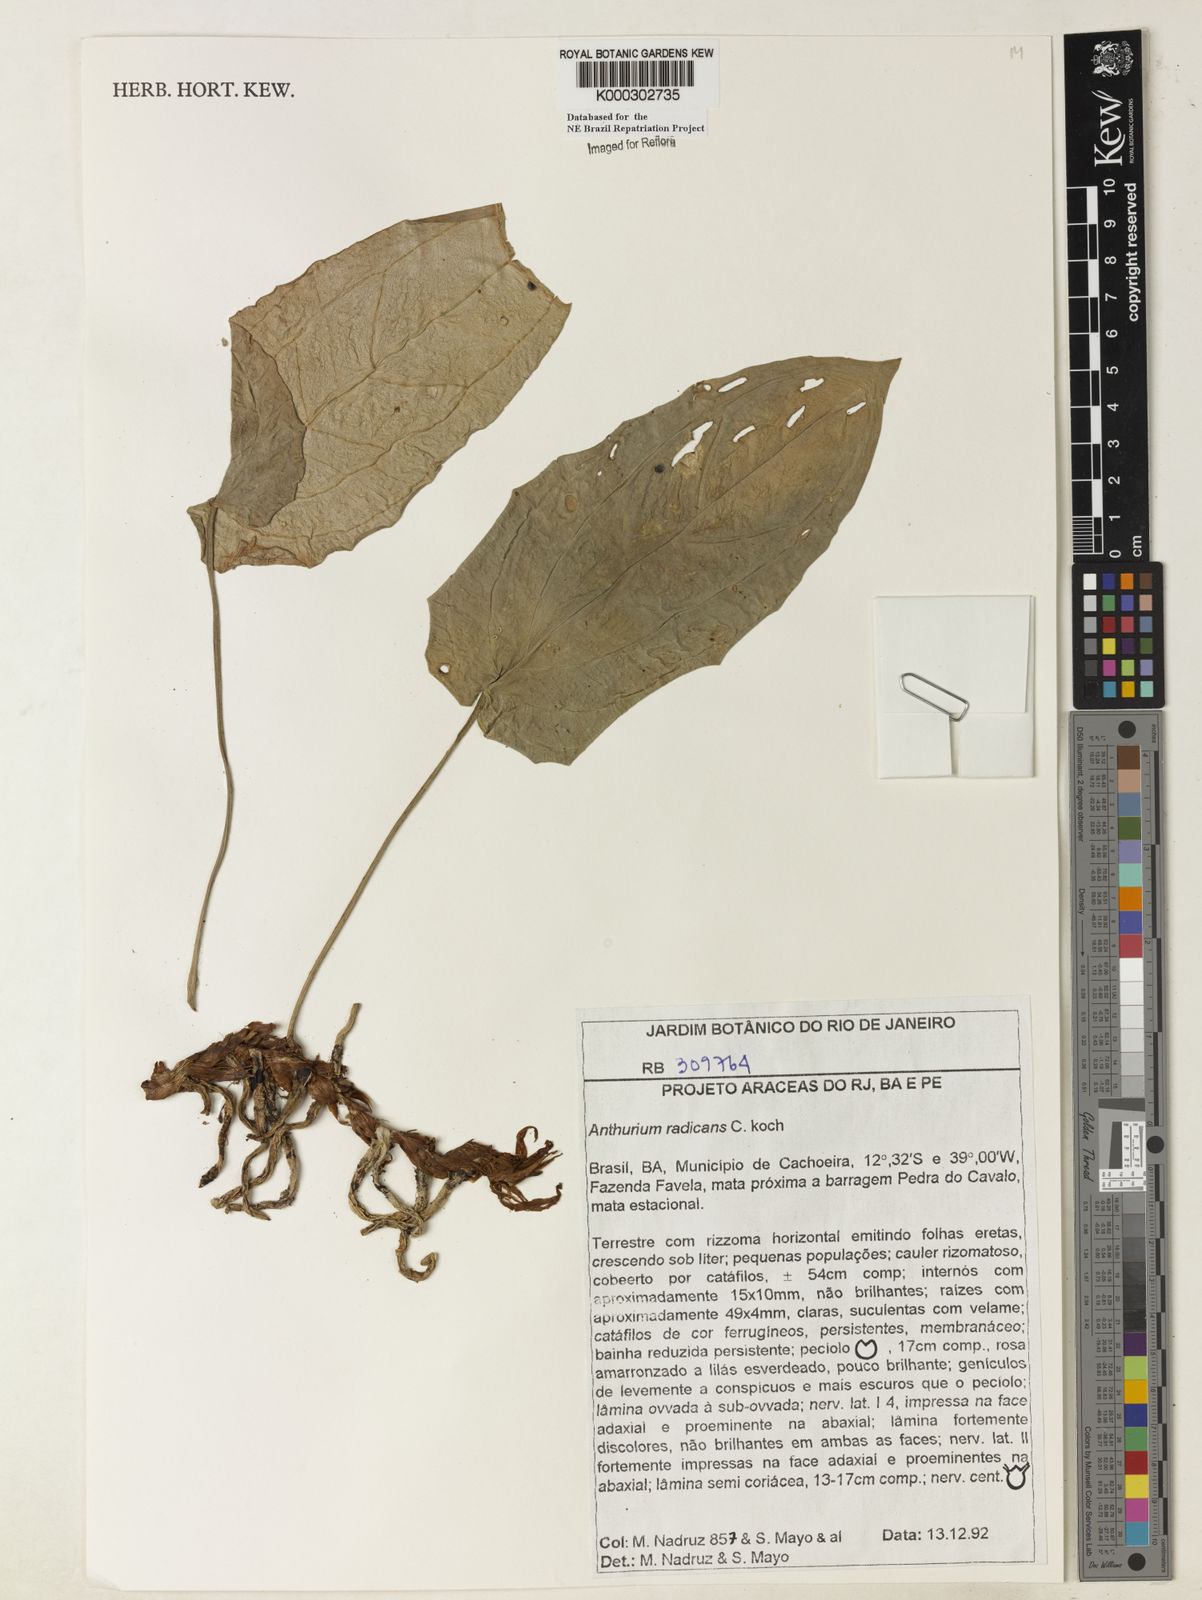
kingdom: Plantae
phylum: Tracheophyta
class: Liliopsida
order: Alismatales
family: Araceae
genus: Anthurium
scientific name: Anthurium radicans
